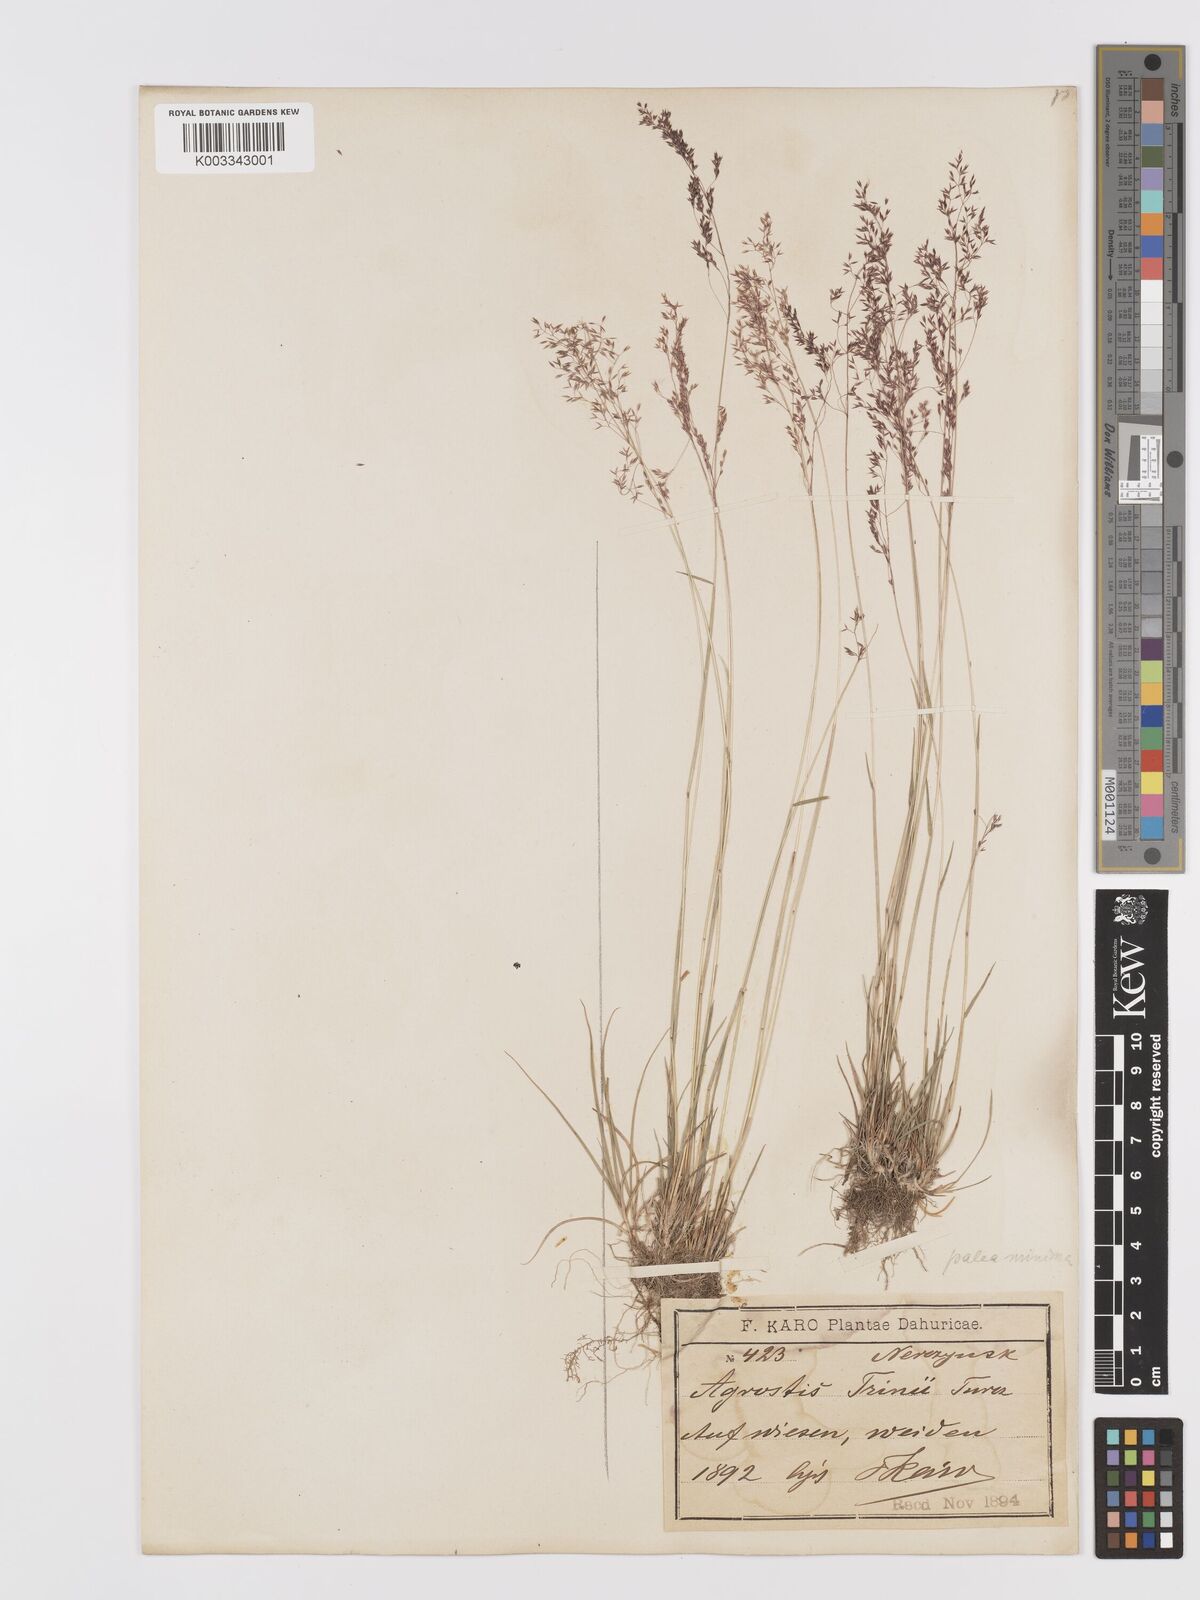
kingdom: Plantae
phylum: Tracheophyta
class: Liliopsida
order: Poales
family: Poaceae
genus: Agrostis
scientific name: Agrostis canina
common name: Velvet bent
